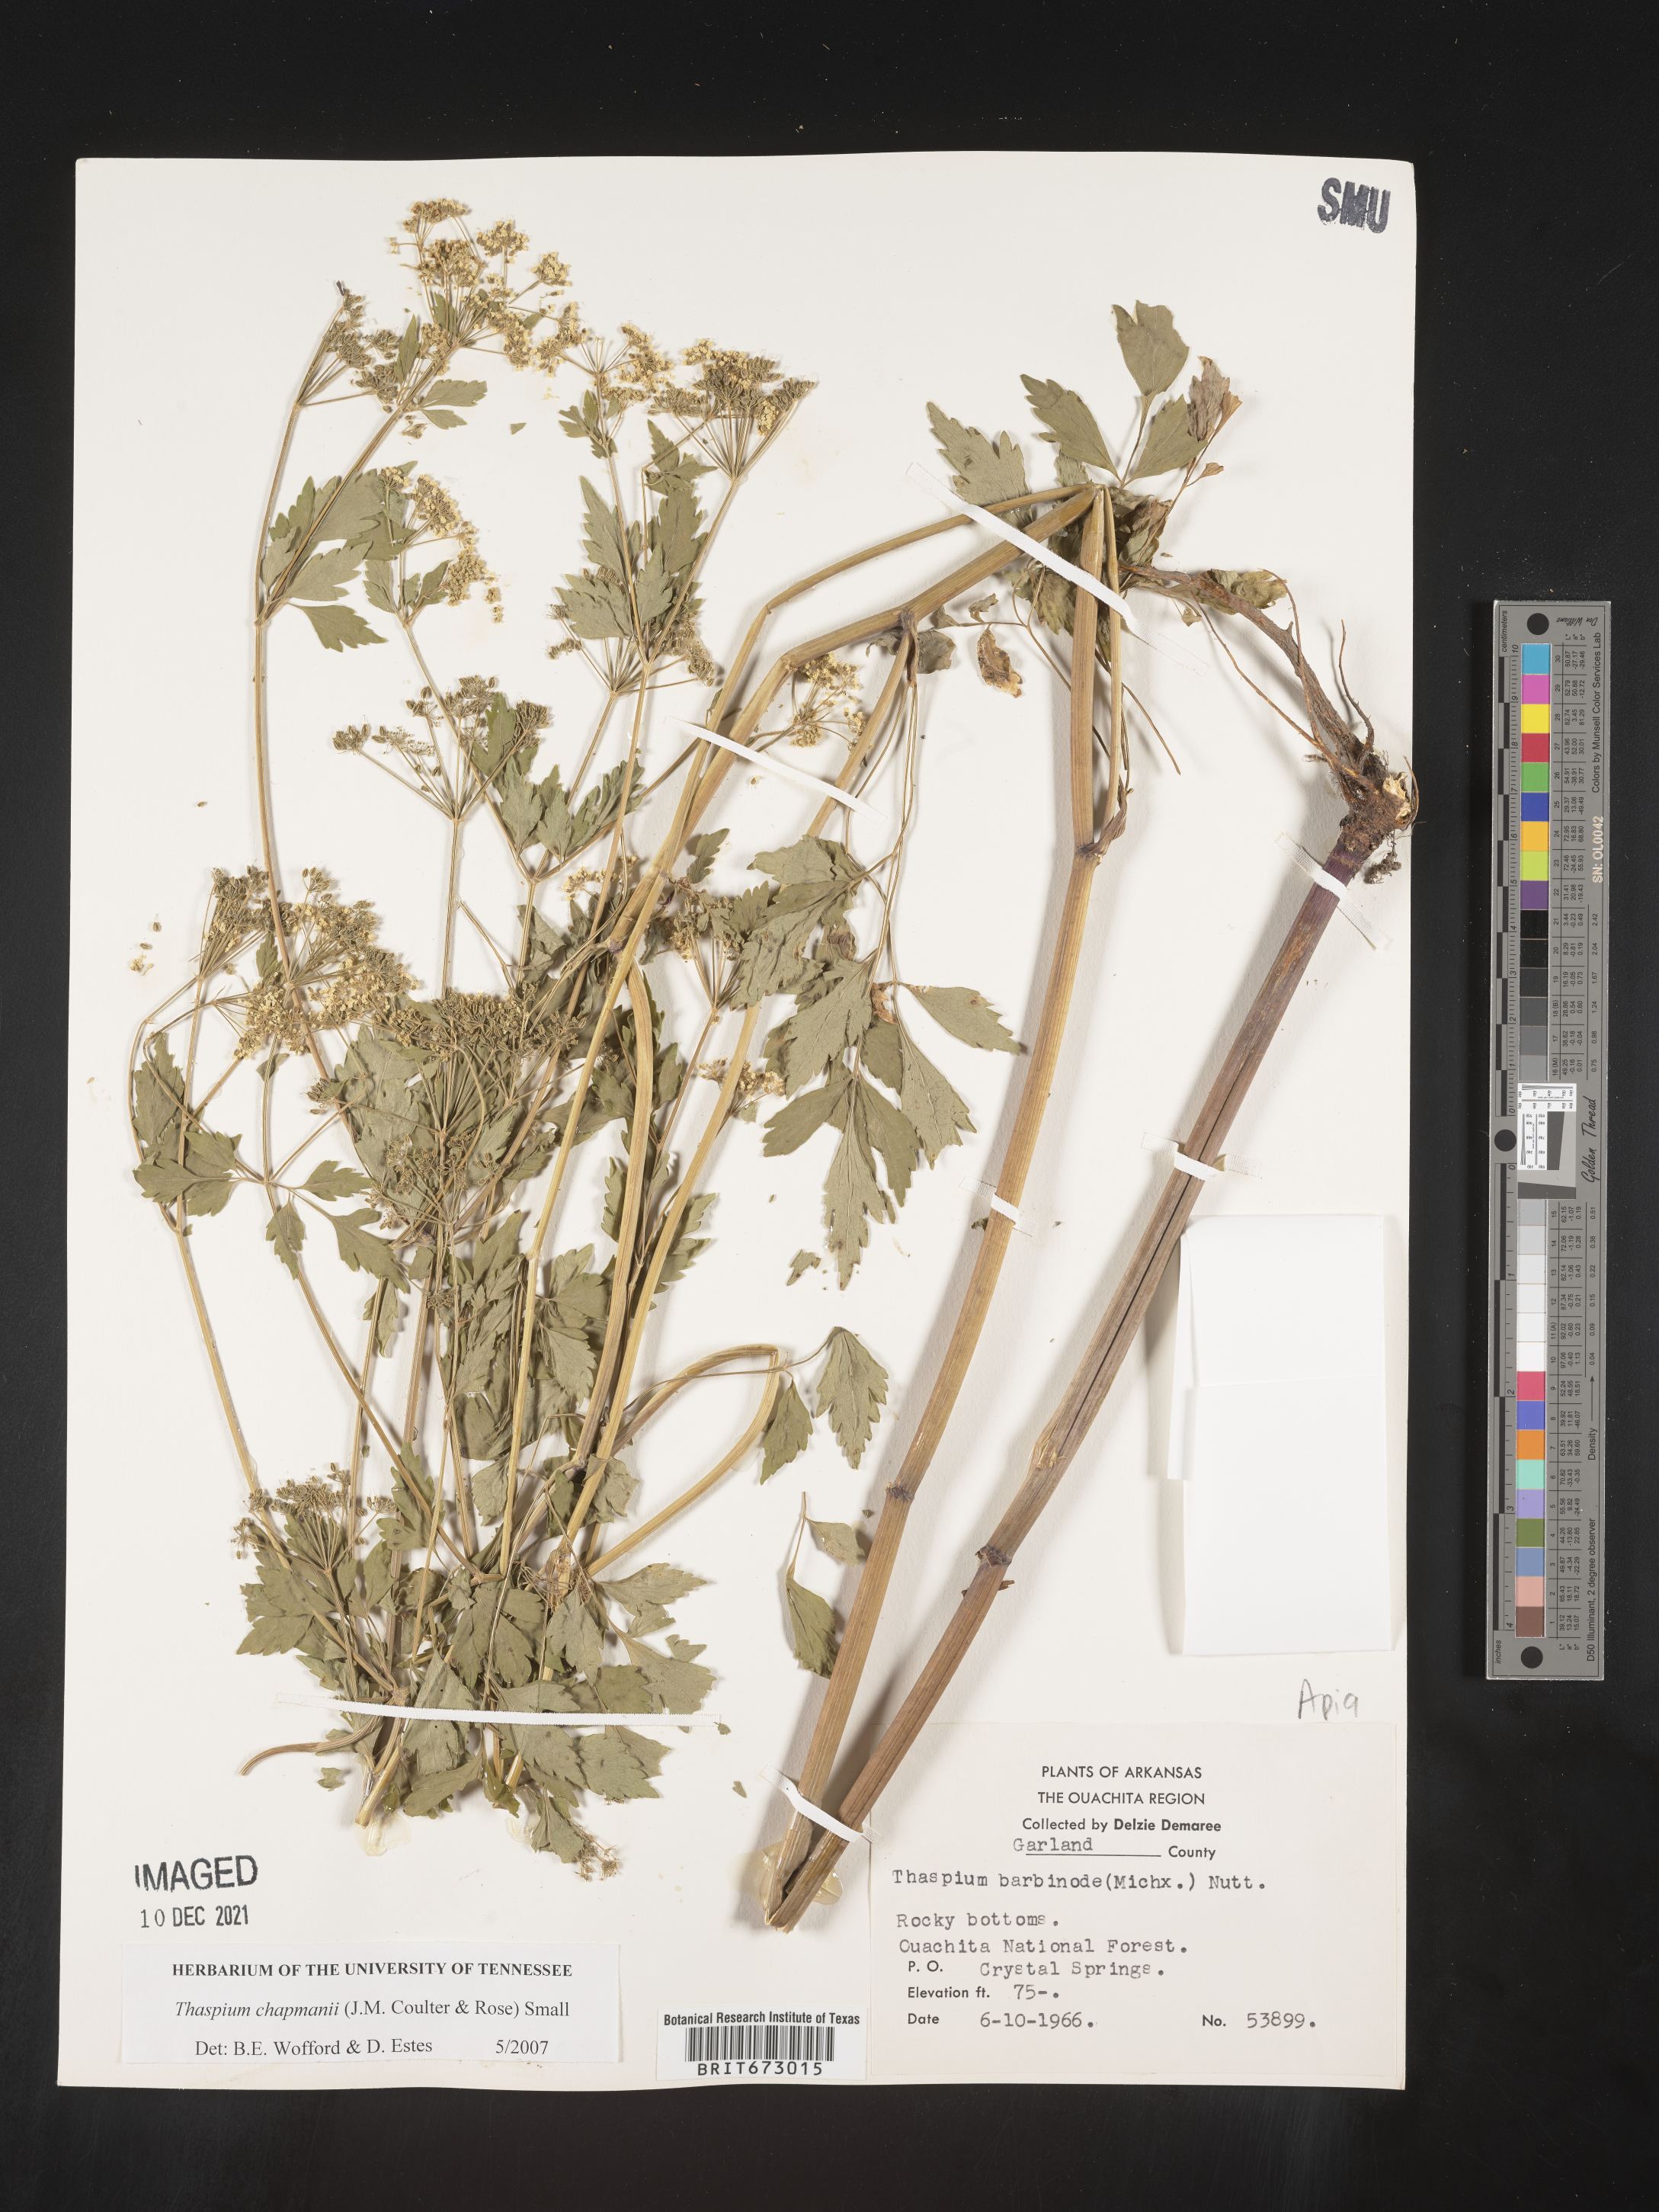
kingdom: Plantae
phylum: Tracheophyta
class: Magnoliopsida
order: Apiales
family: Apiaceae
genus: Thaspium
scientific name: Thaspium barbinode
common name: Bearded meadow-parsnip
